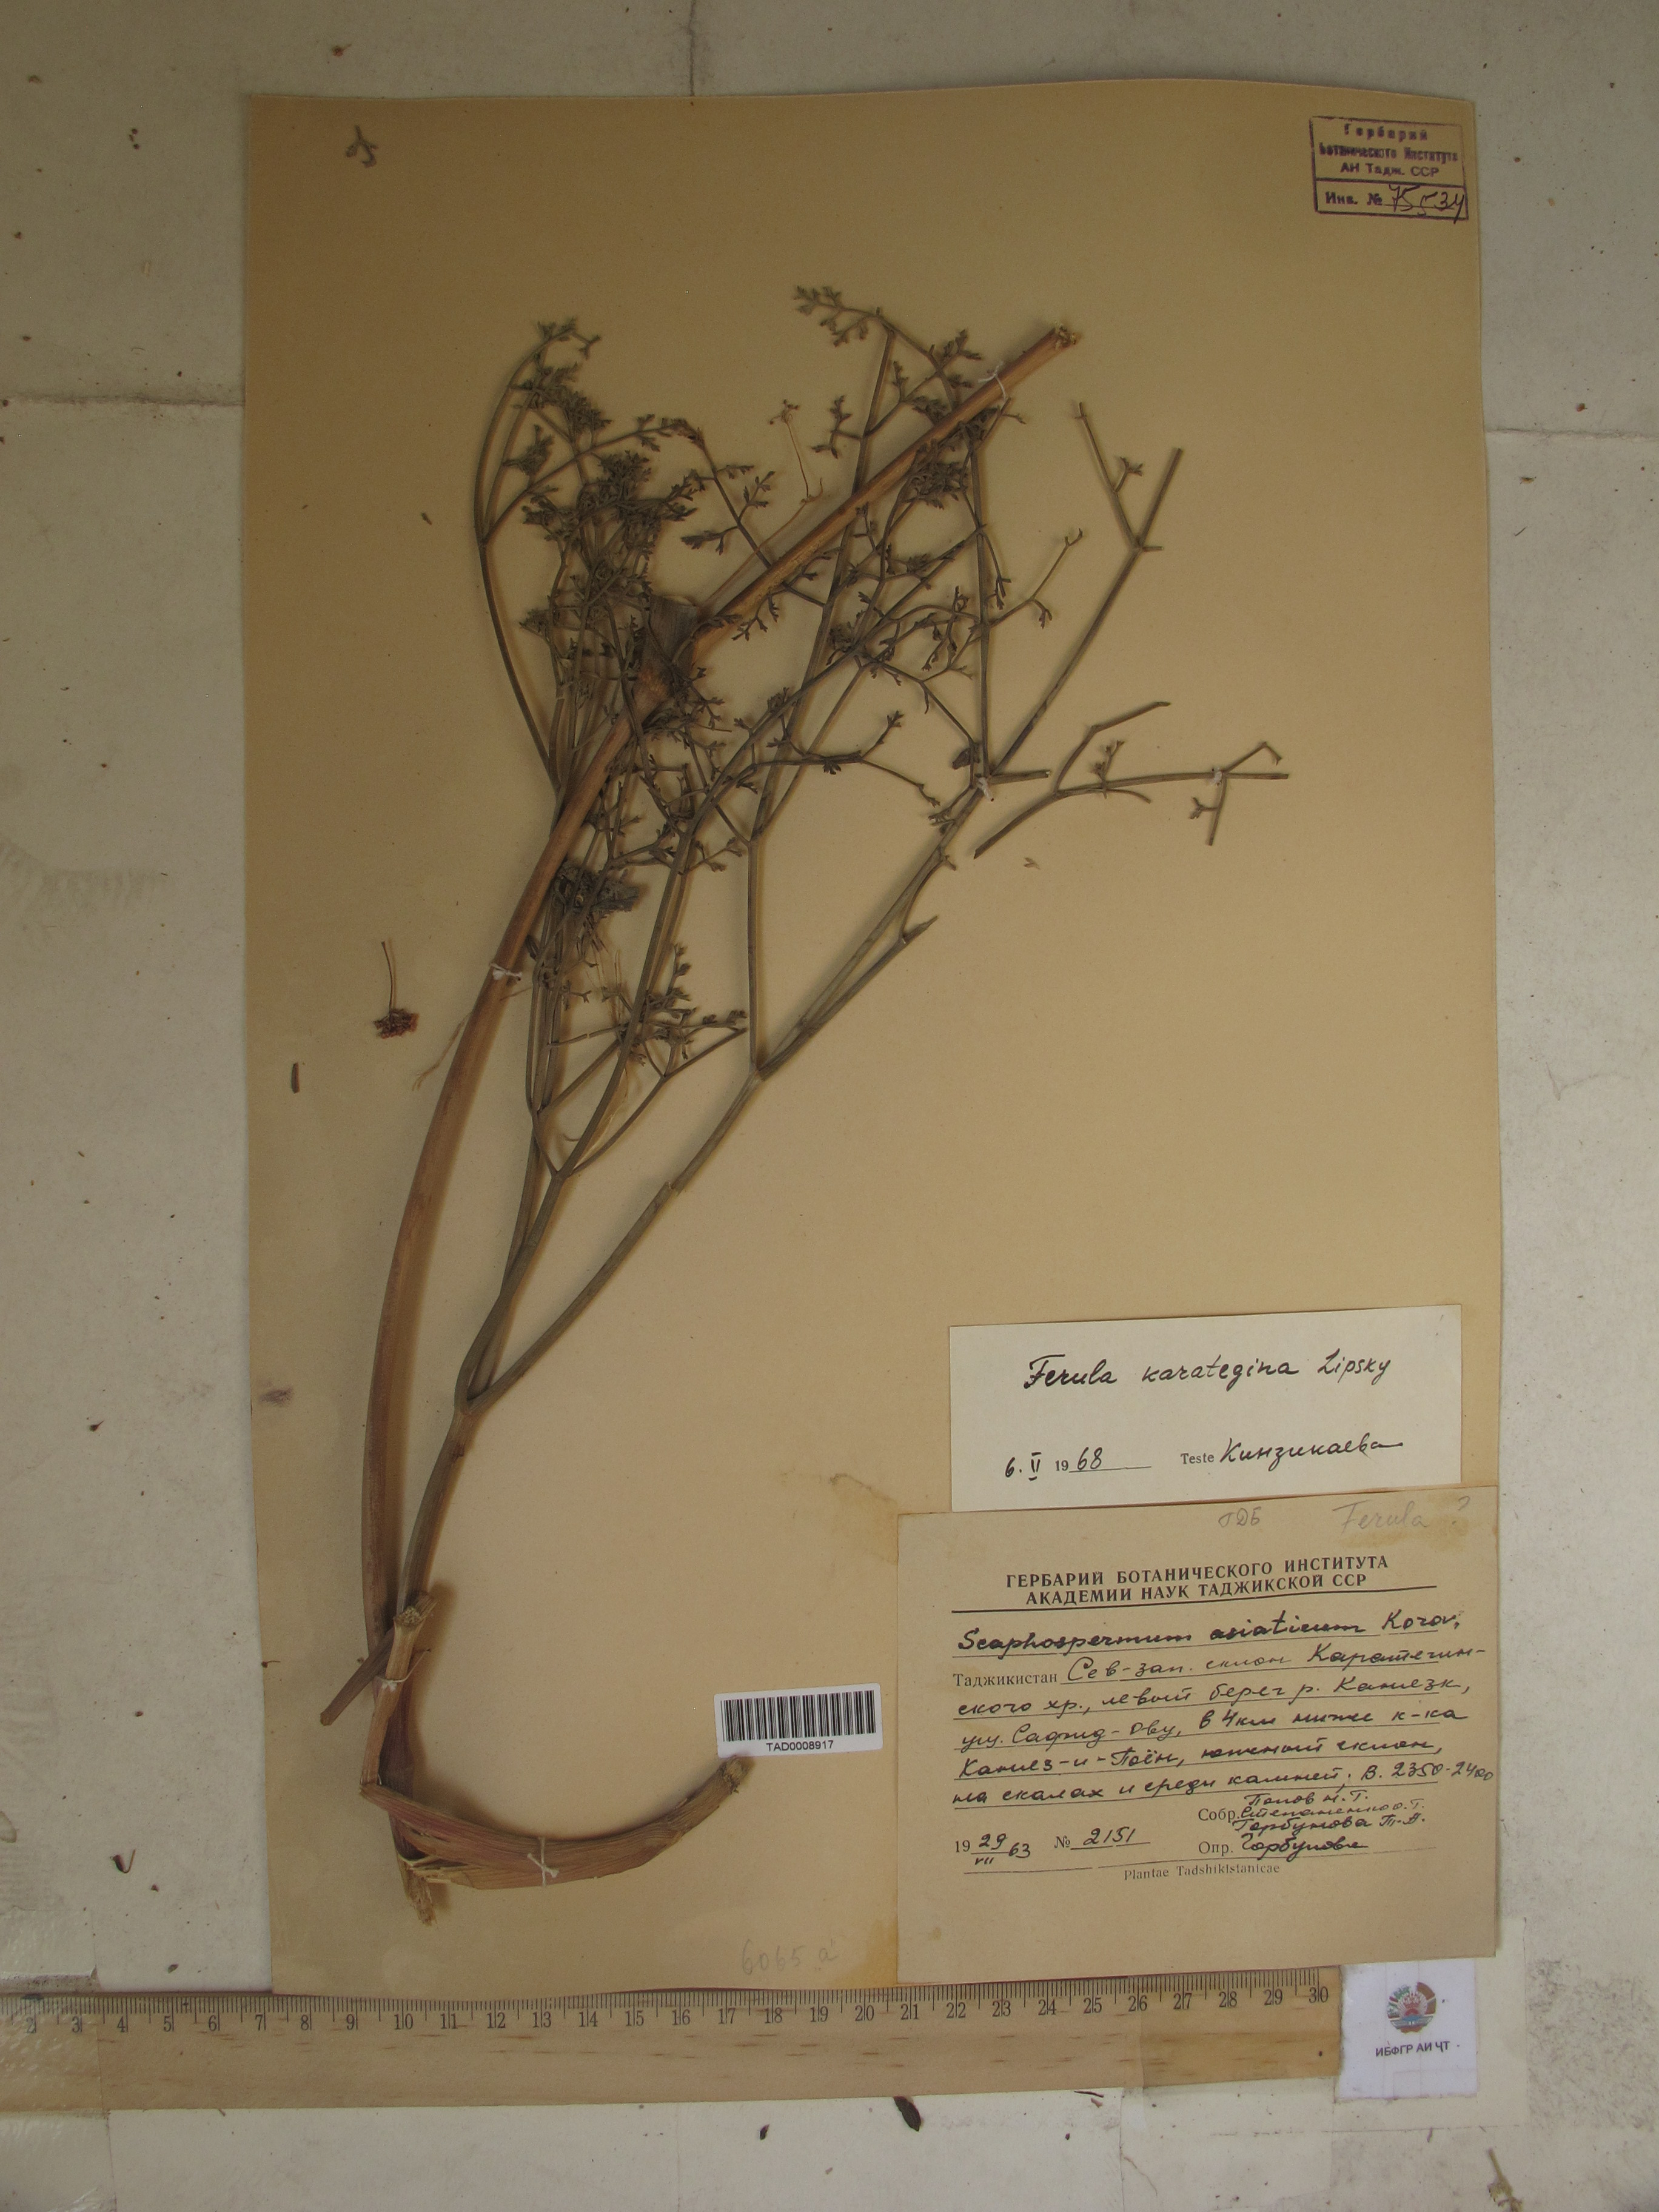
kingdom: Plantae
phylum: Tracheophyta
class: Magnoliopsida
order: Apiales
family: Apiaceae
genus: Ferula
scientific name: Ferula karategina
